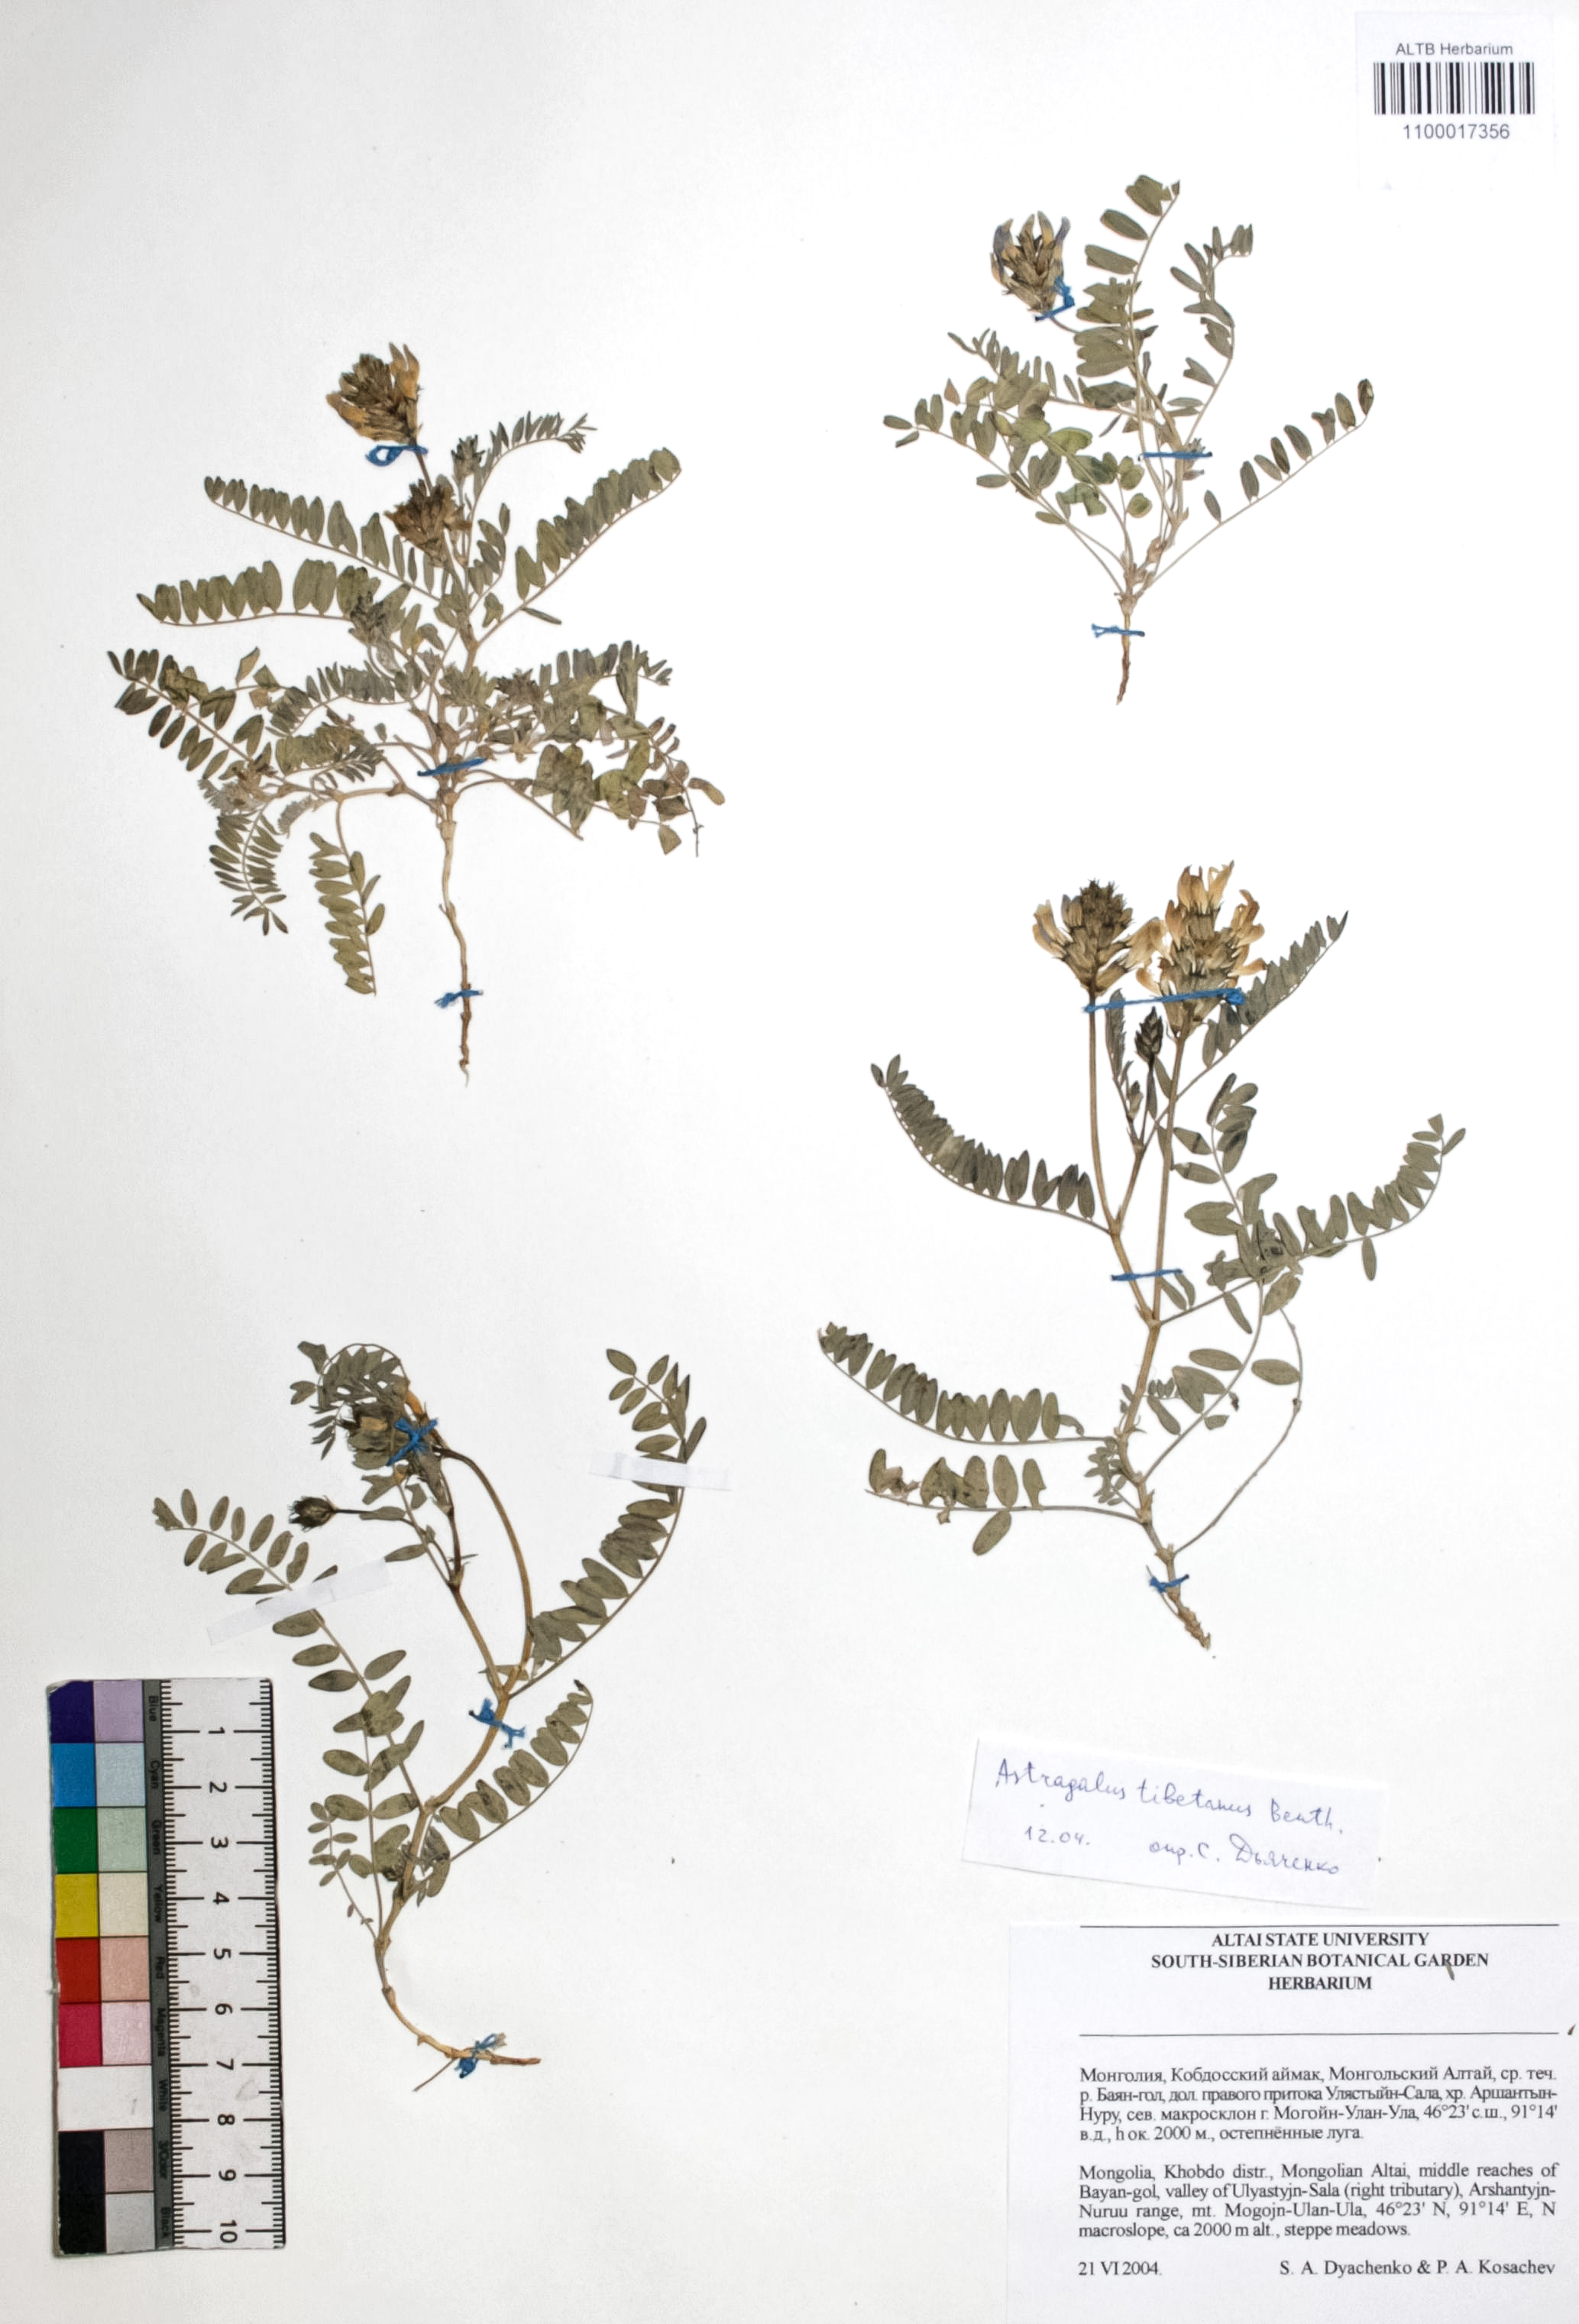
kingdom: Plantae
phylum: Tracheophyta
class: Magnoliopsida
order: Fabales
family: Fabaceae
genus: Astragalus
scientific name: Astragalus tibetanus
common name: Tibet milkvetch
